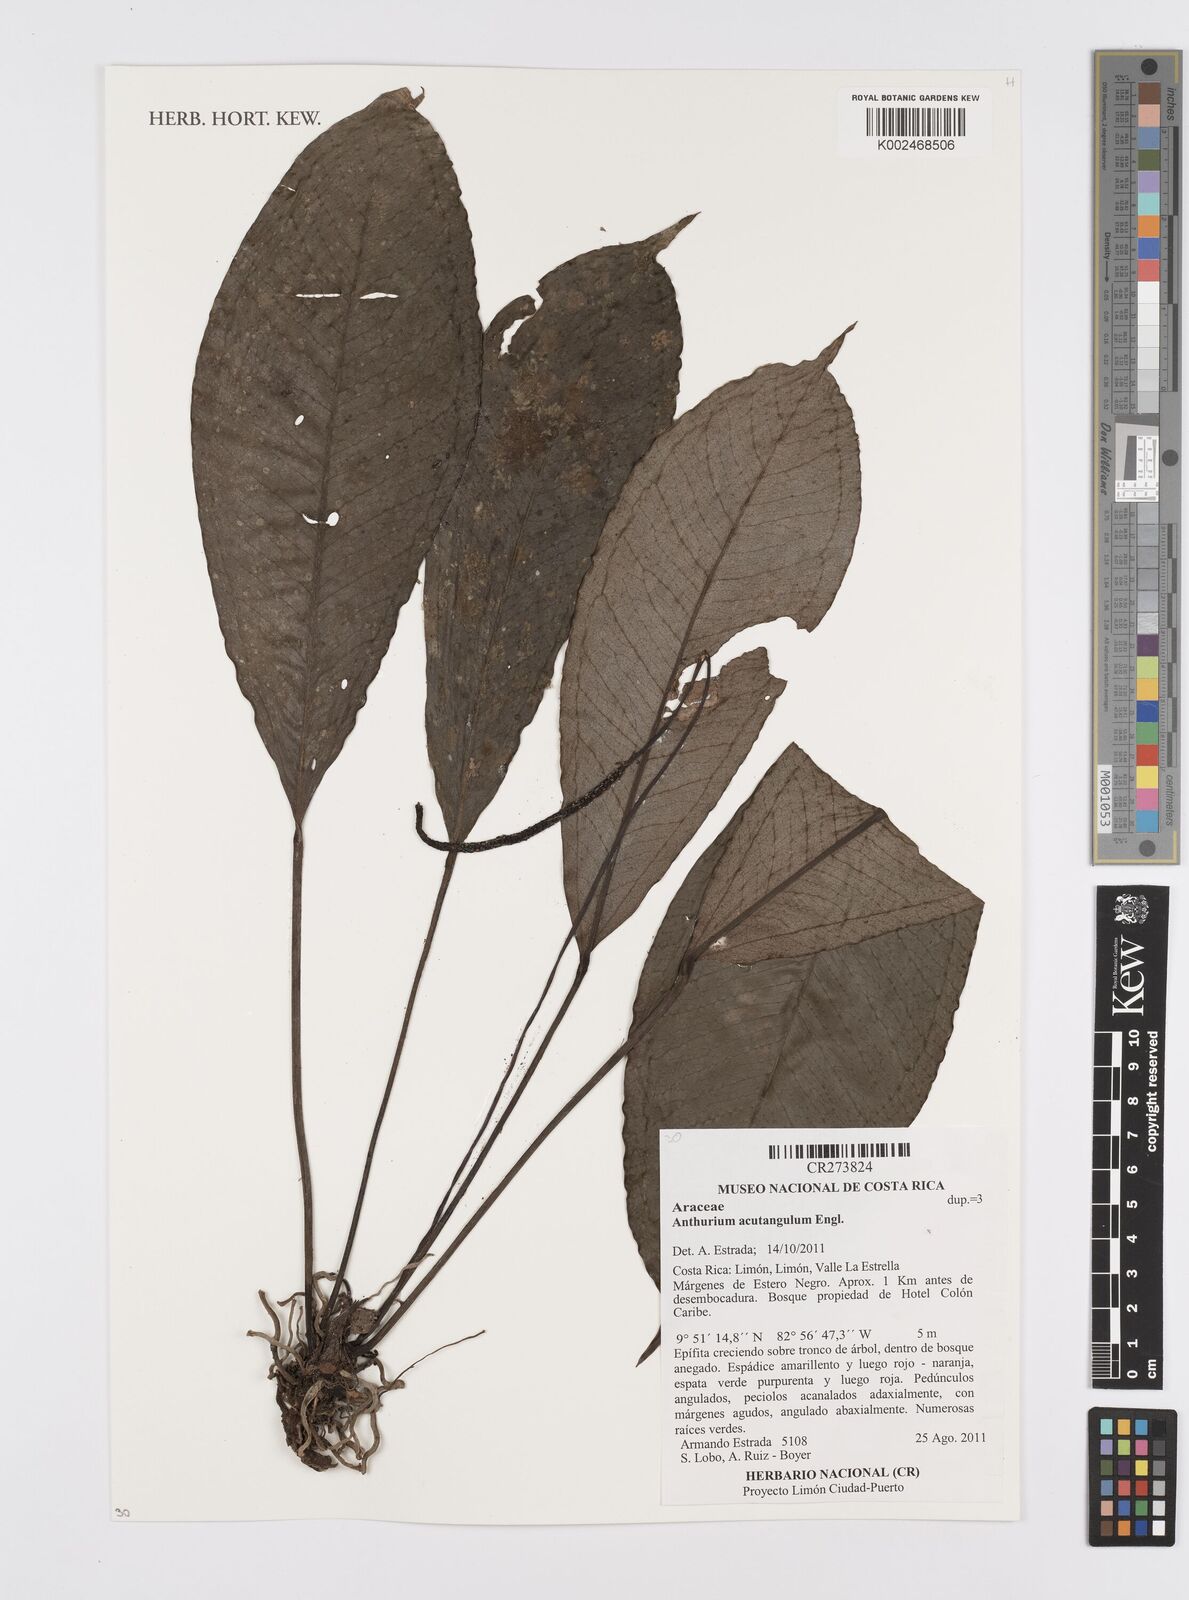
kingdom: Plantae
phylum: Tracheophyta
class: Liliopsida
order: Alismatales
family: Araceae
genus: Anthurium
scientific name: Anthurium acutangulum
